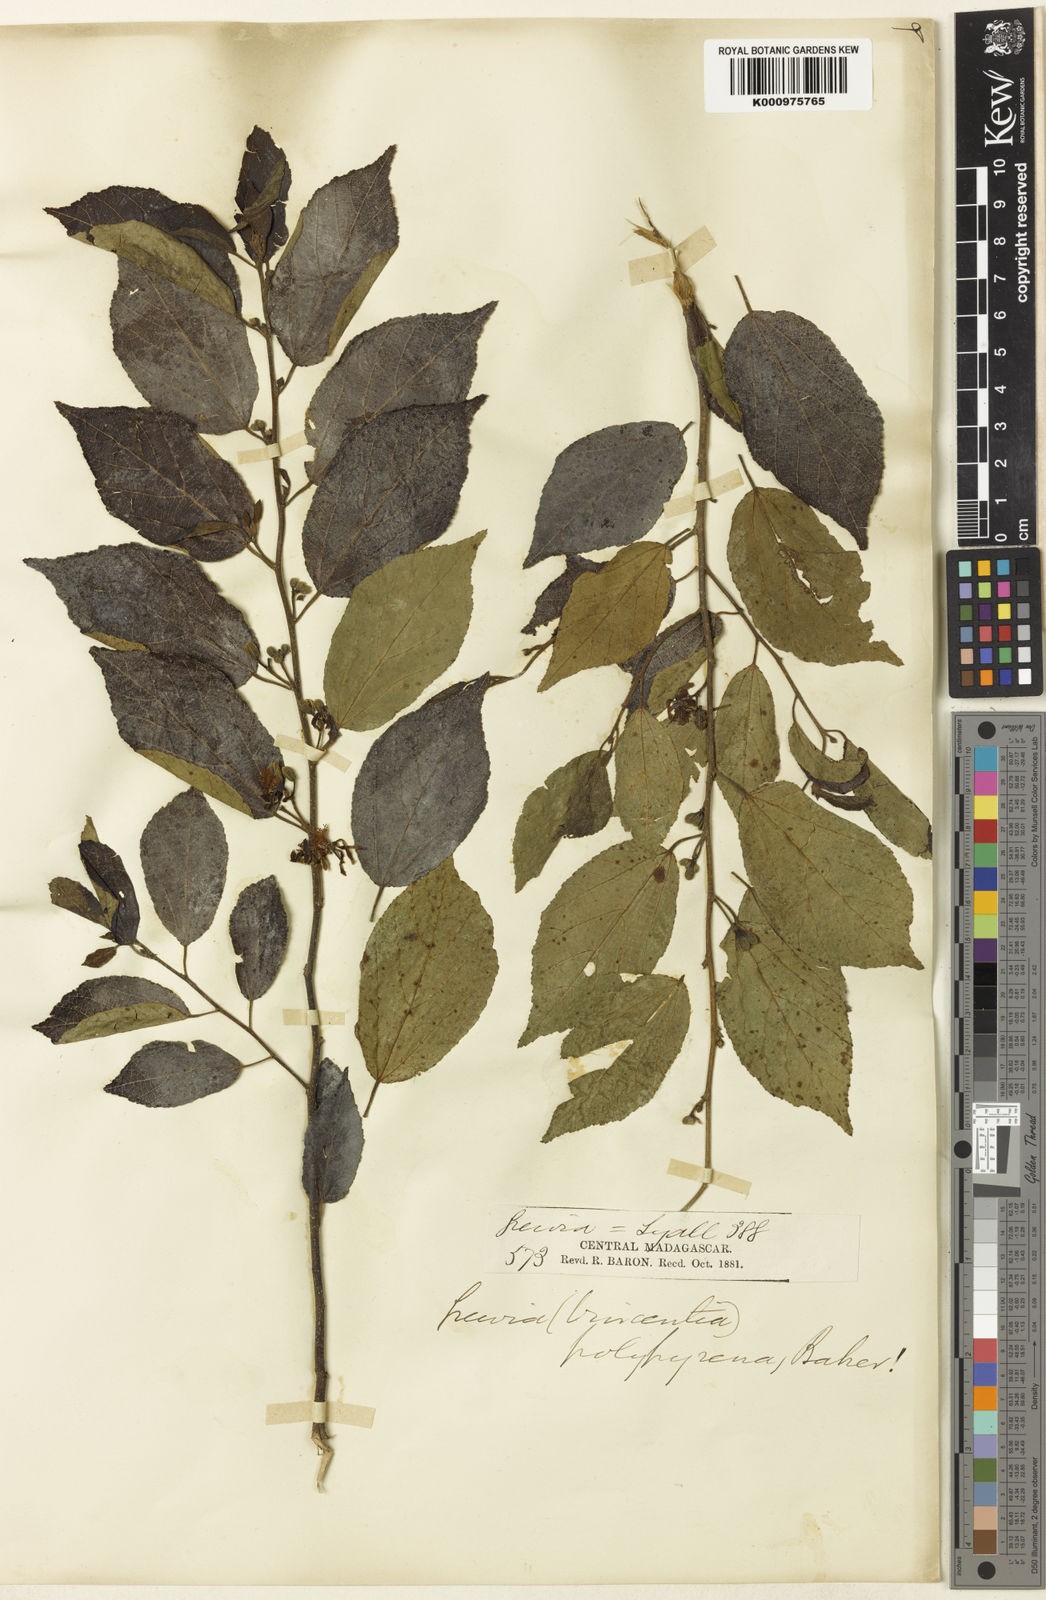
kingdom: Plantae
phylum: Tracheophyta
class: Magnoliopsida
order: Malvales
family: Malvaceae
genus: Grewia
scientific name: Grewia rhomboides
